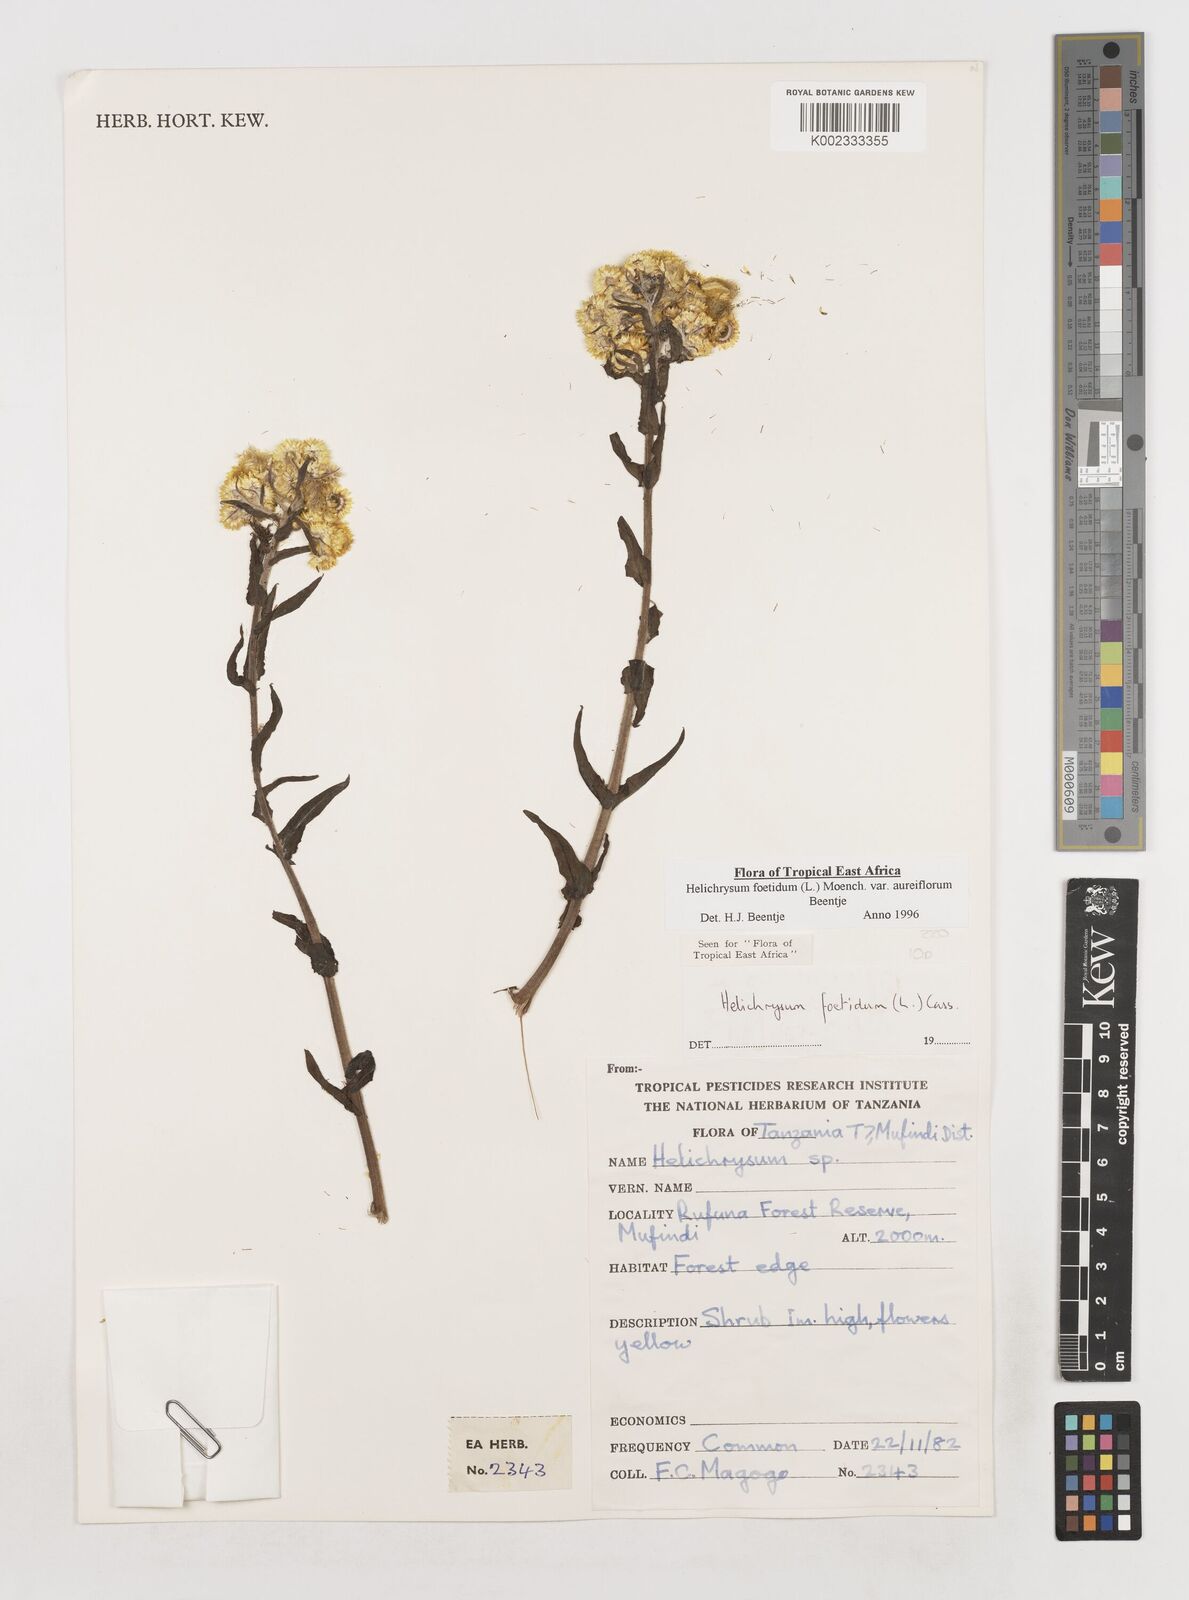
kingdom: Plantae
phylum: Tracheophyta
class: Magnoliopsida
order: Asterales
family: Asteraceae
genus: Helichrysum
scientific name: Helichrysum foetidum
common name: Stinking everlasting
